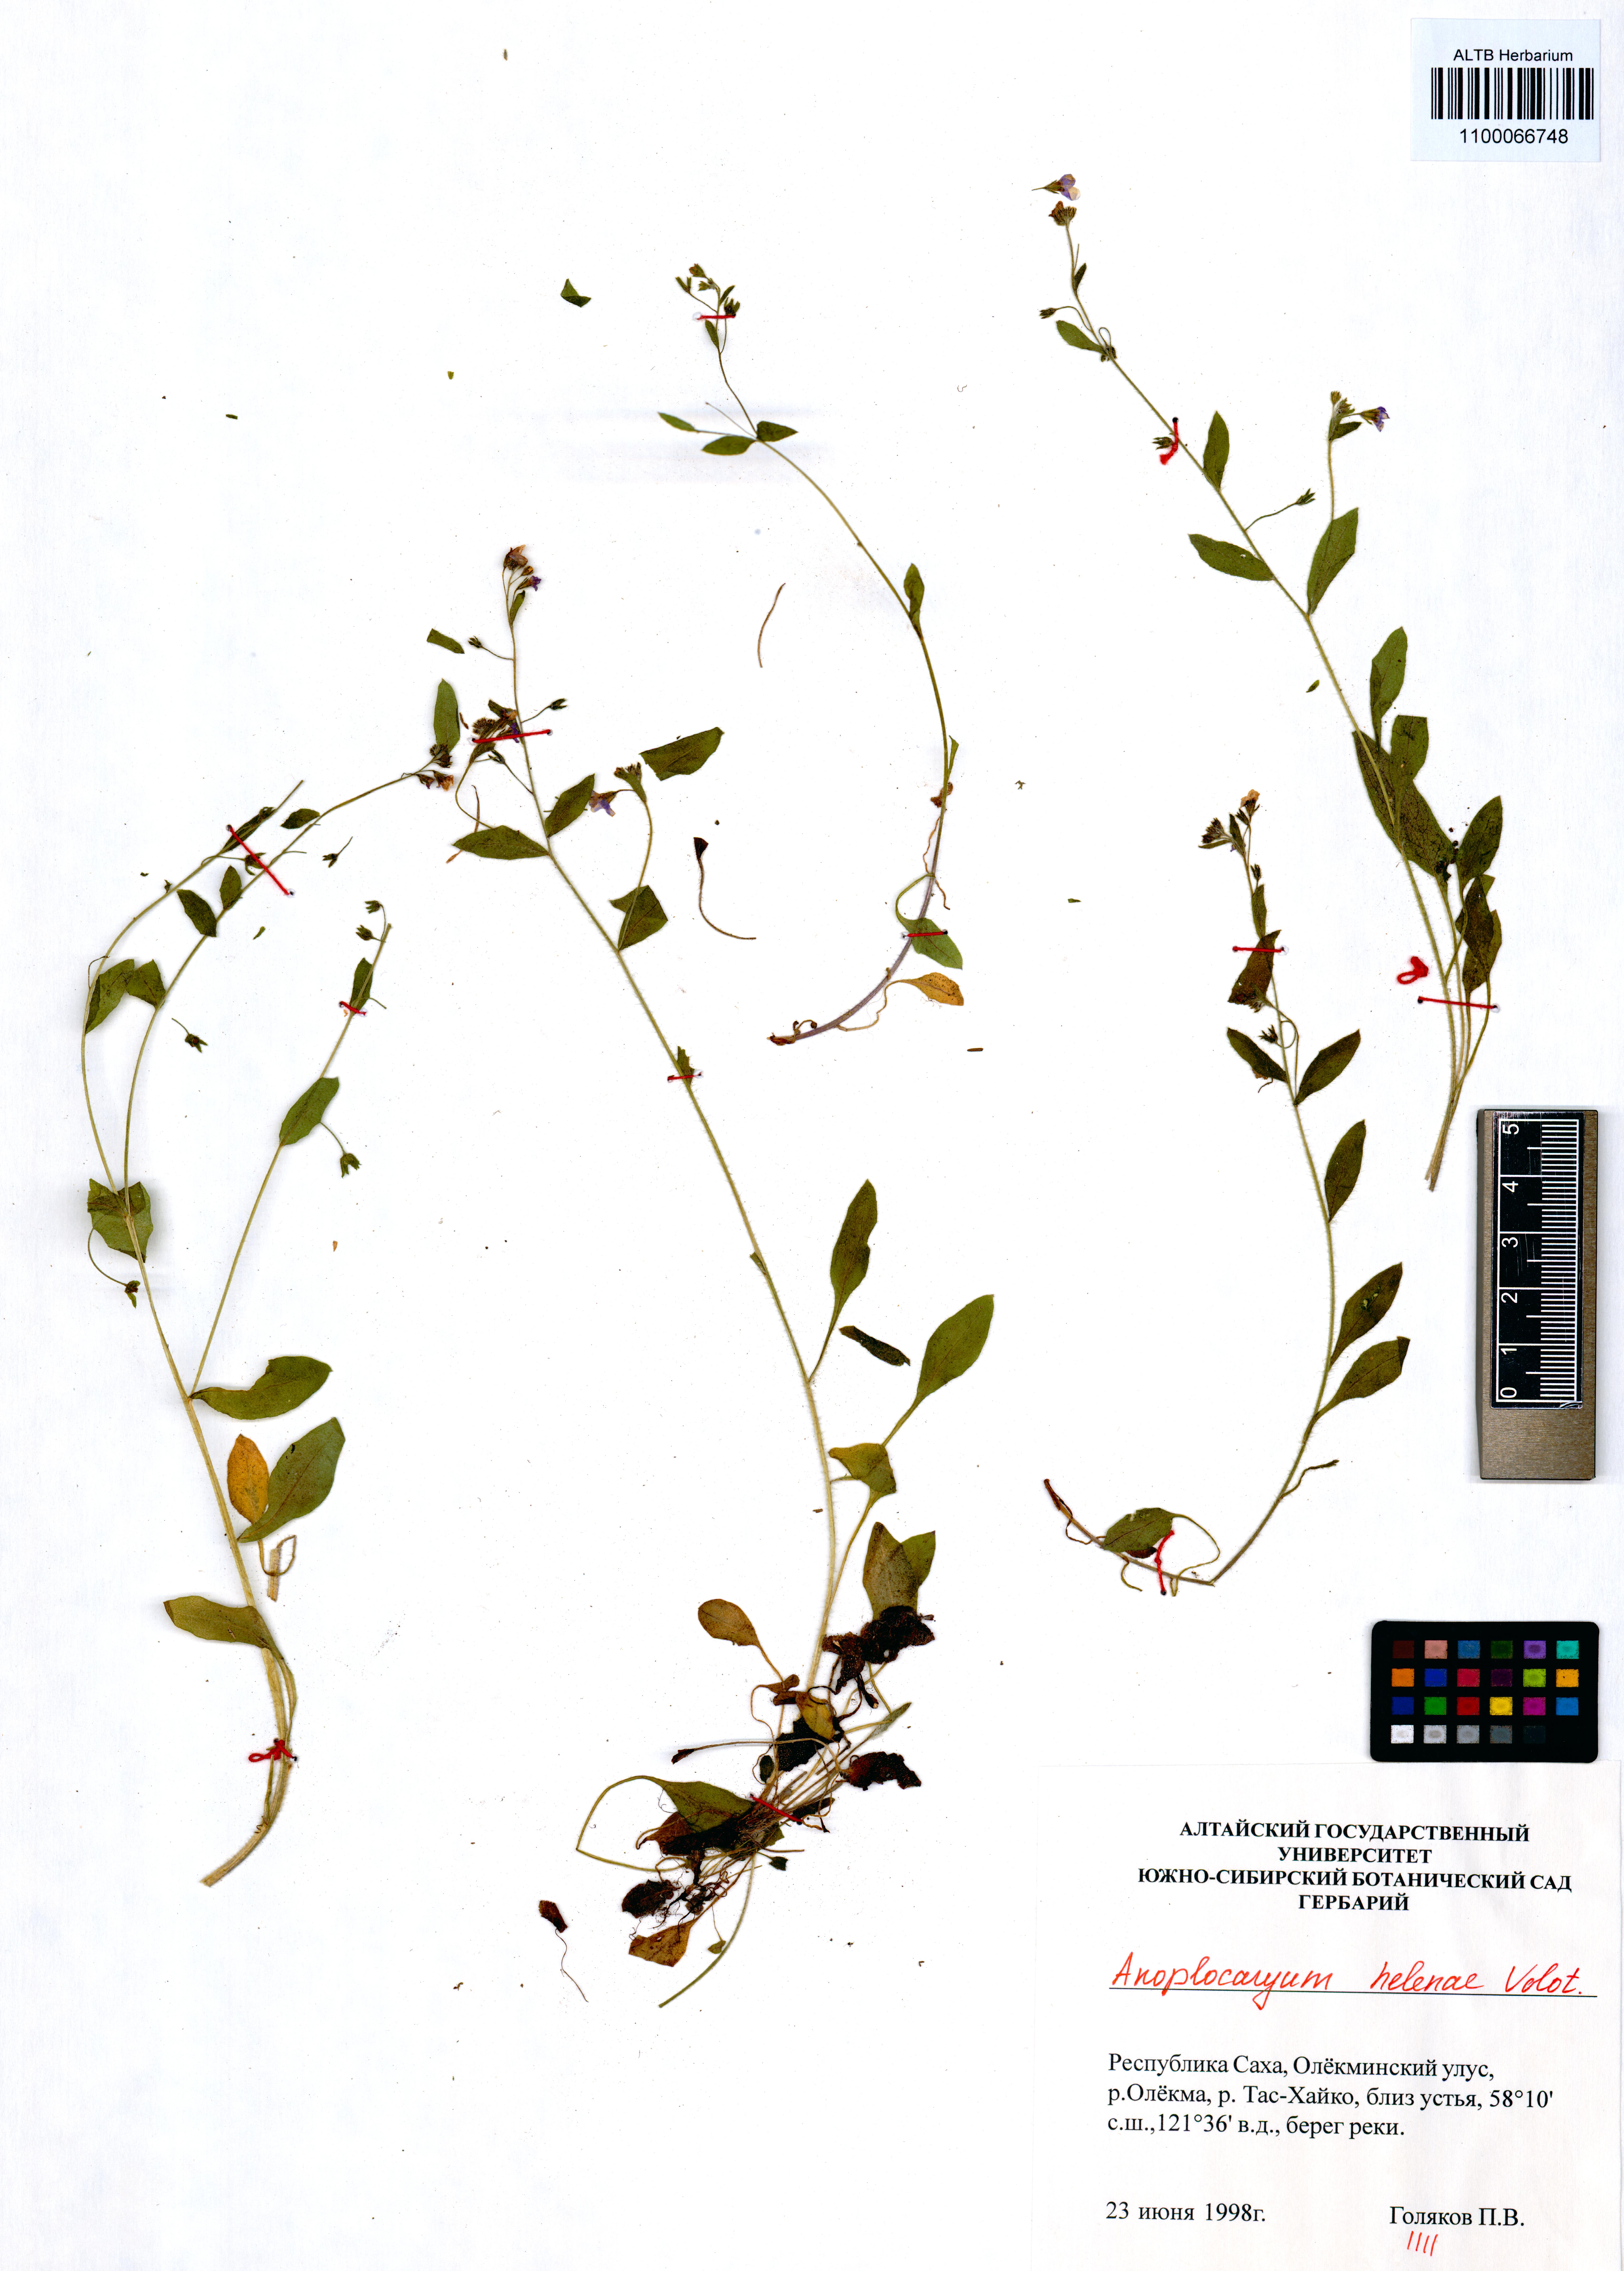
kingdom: Plantae
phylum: Tracheophyta
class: Magnoliopsida
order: Boraginales
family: Boraginaceae
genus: Anoplocaryum
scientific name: Anoplocaryum helenae
